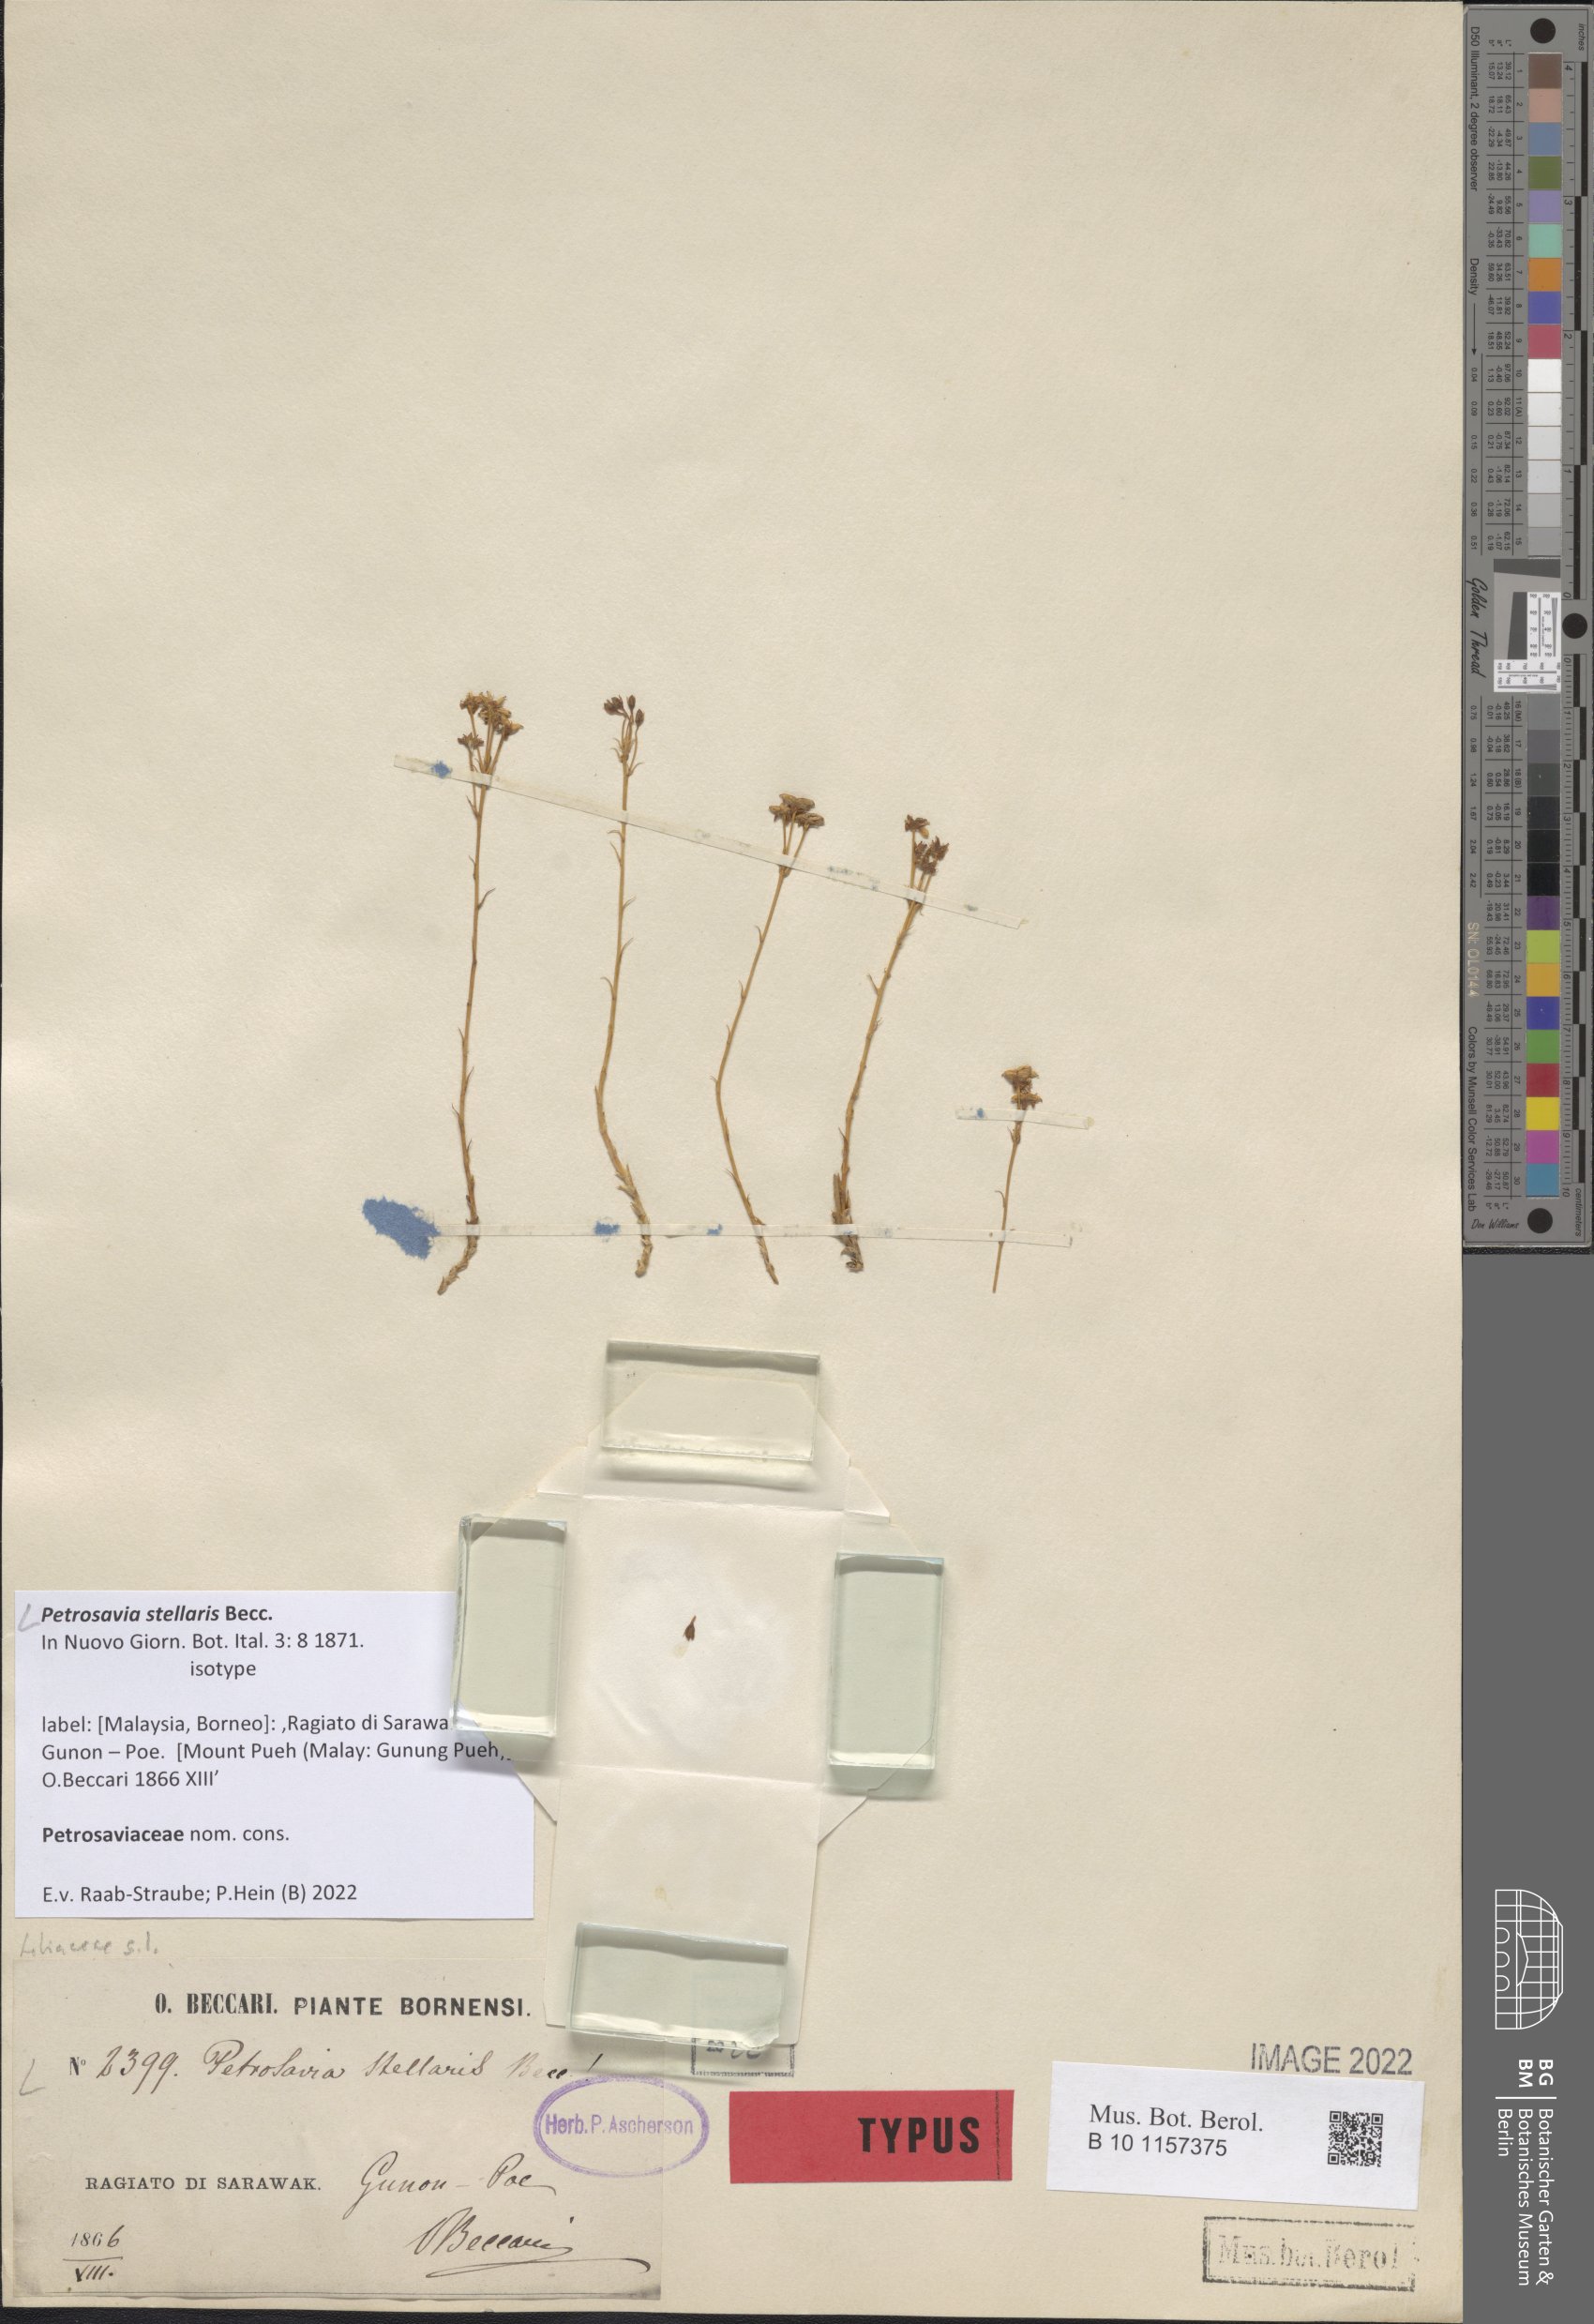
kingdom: Plantae
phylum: Tracheophyta
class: Liliopsida
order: Petrosaviales
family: Petrosaviaceae
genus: Petrosavia
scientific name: Petrosavia stellaris
